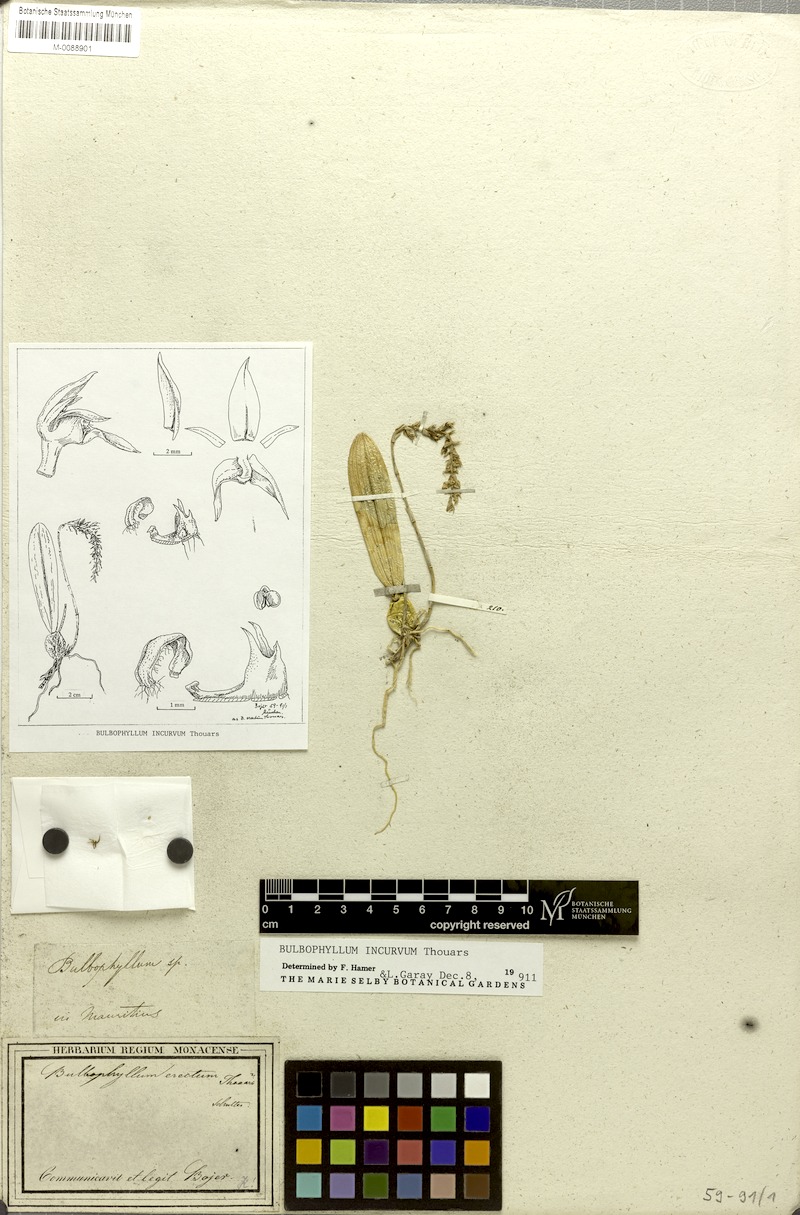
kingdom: Plantae
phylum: Tracheophyta
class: Liliopsida
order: Asparagales
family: Orchidaceae
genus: Bulbophyllum
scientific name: Bulbophyllum incurvum
